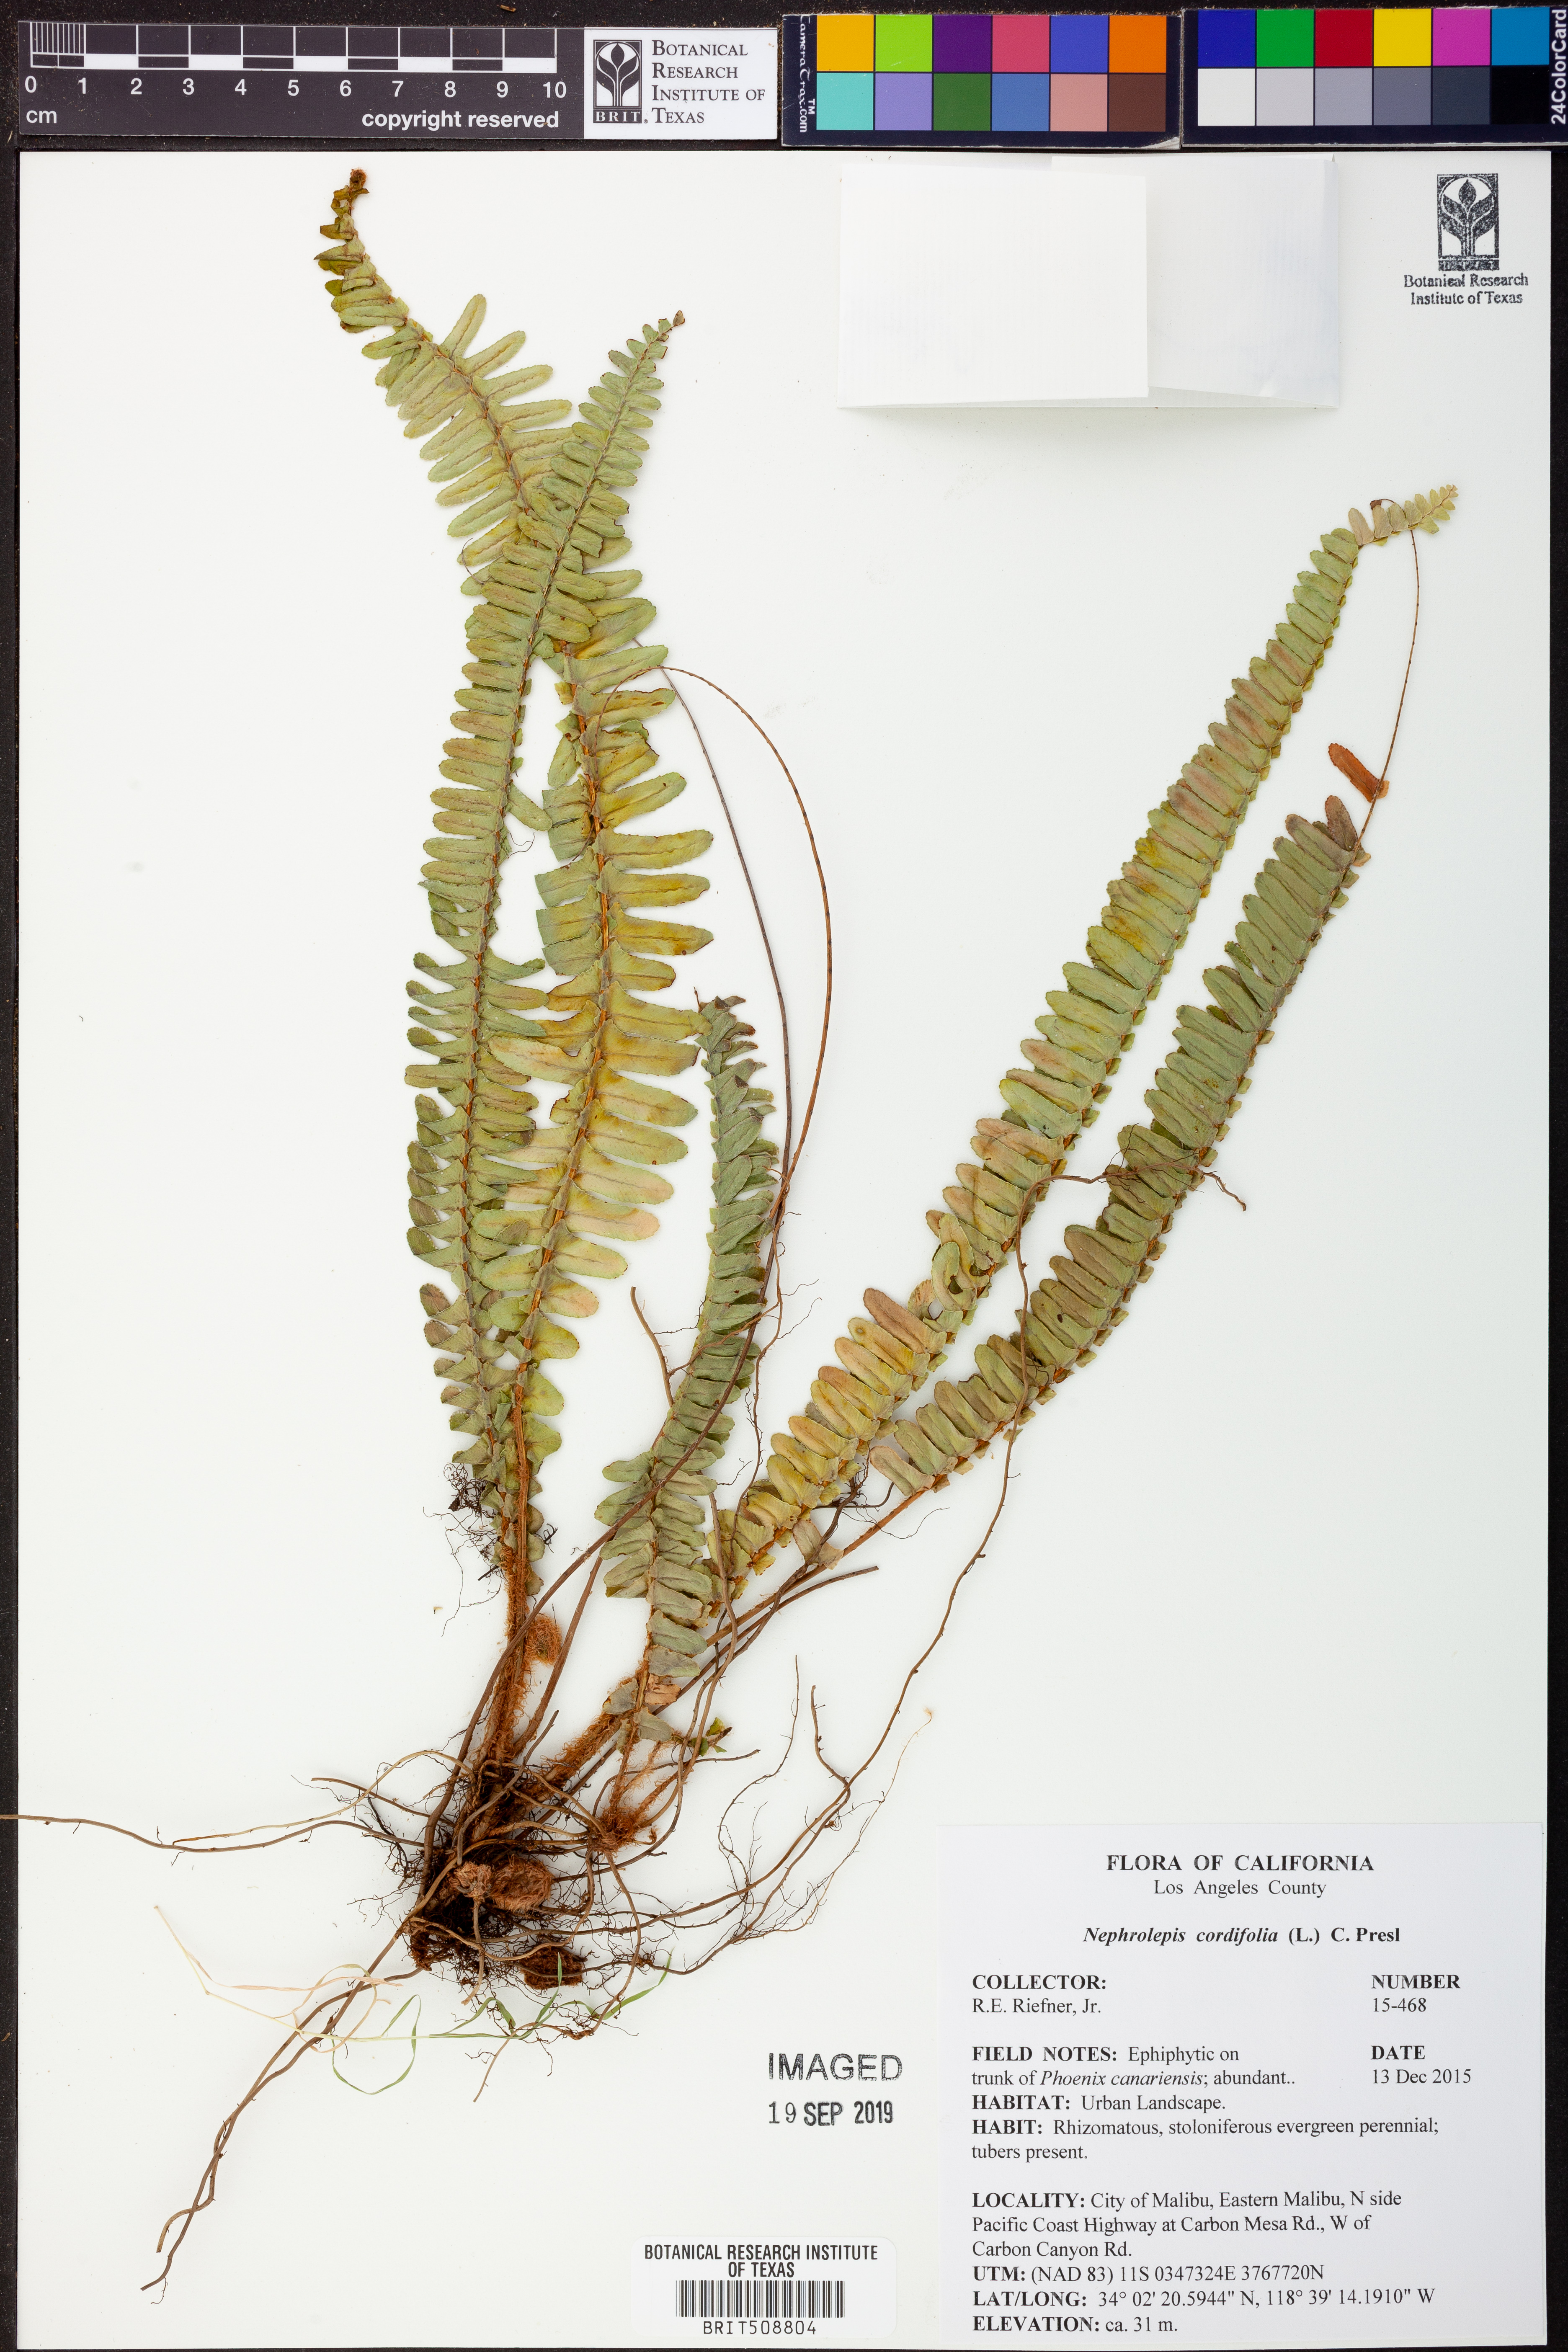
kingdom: Plantae
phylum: Tracheophyta
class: Polypodiopsida
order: Polypodiales
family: Nephrolepidaceae
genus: Nephrolepis
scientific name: Nephrolepis cordifolia
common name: Narrow swordfern
